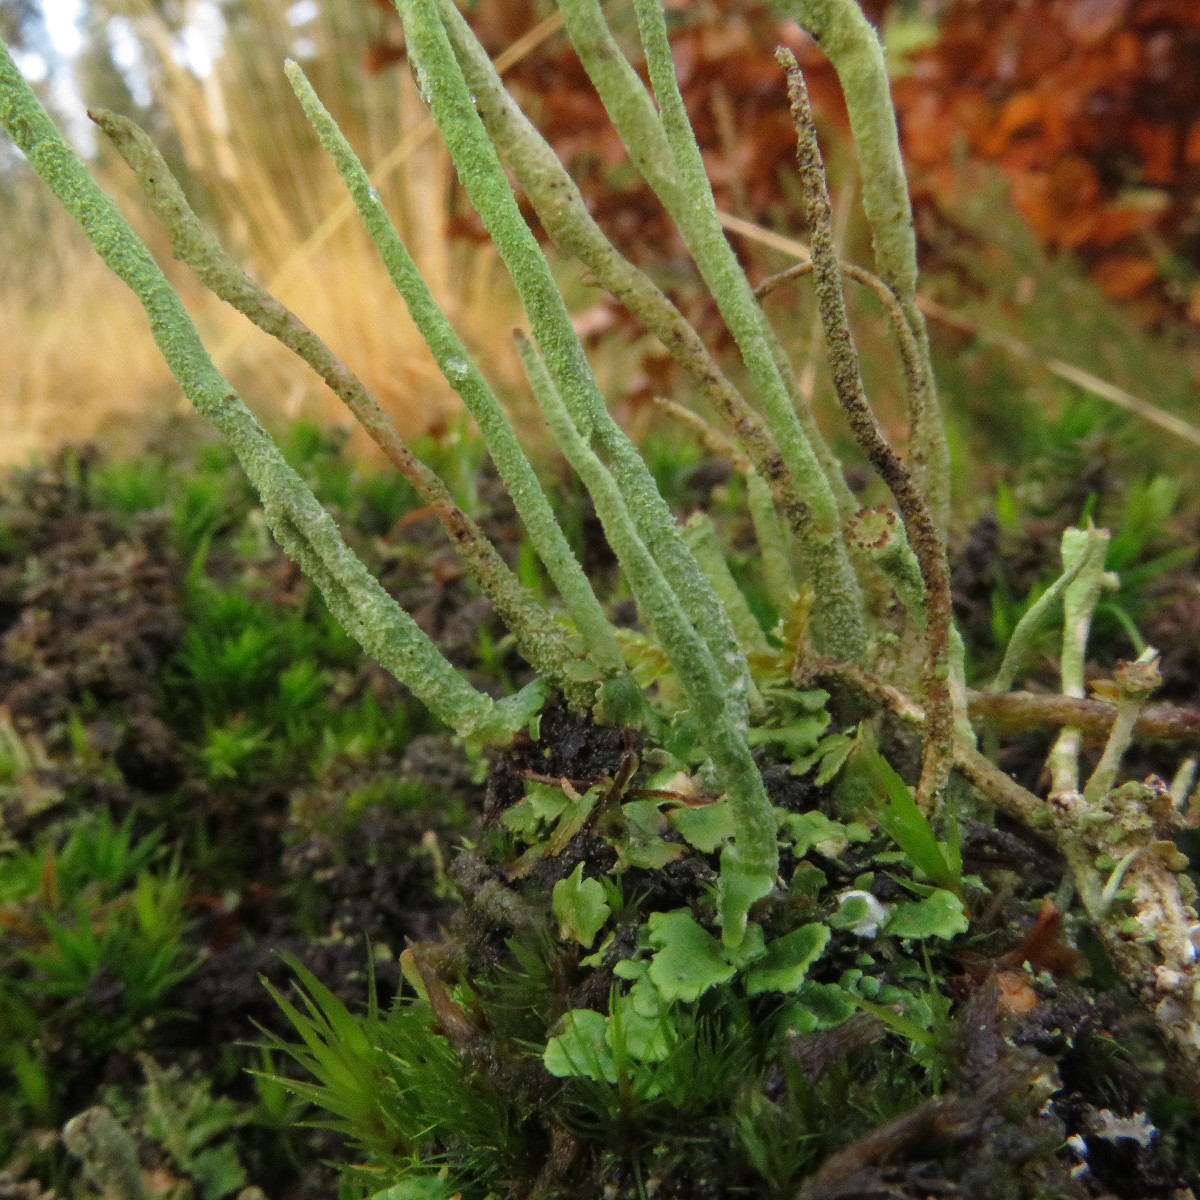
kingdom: Fungi
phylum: Ascomycota
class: Lecanoromycetes
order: Lecanorales
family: Cladoniaceae
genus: Cladonia
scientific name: Cladonia subulata
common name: spids bægerlav
